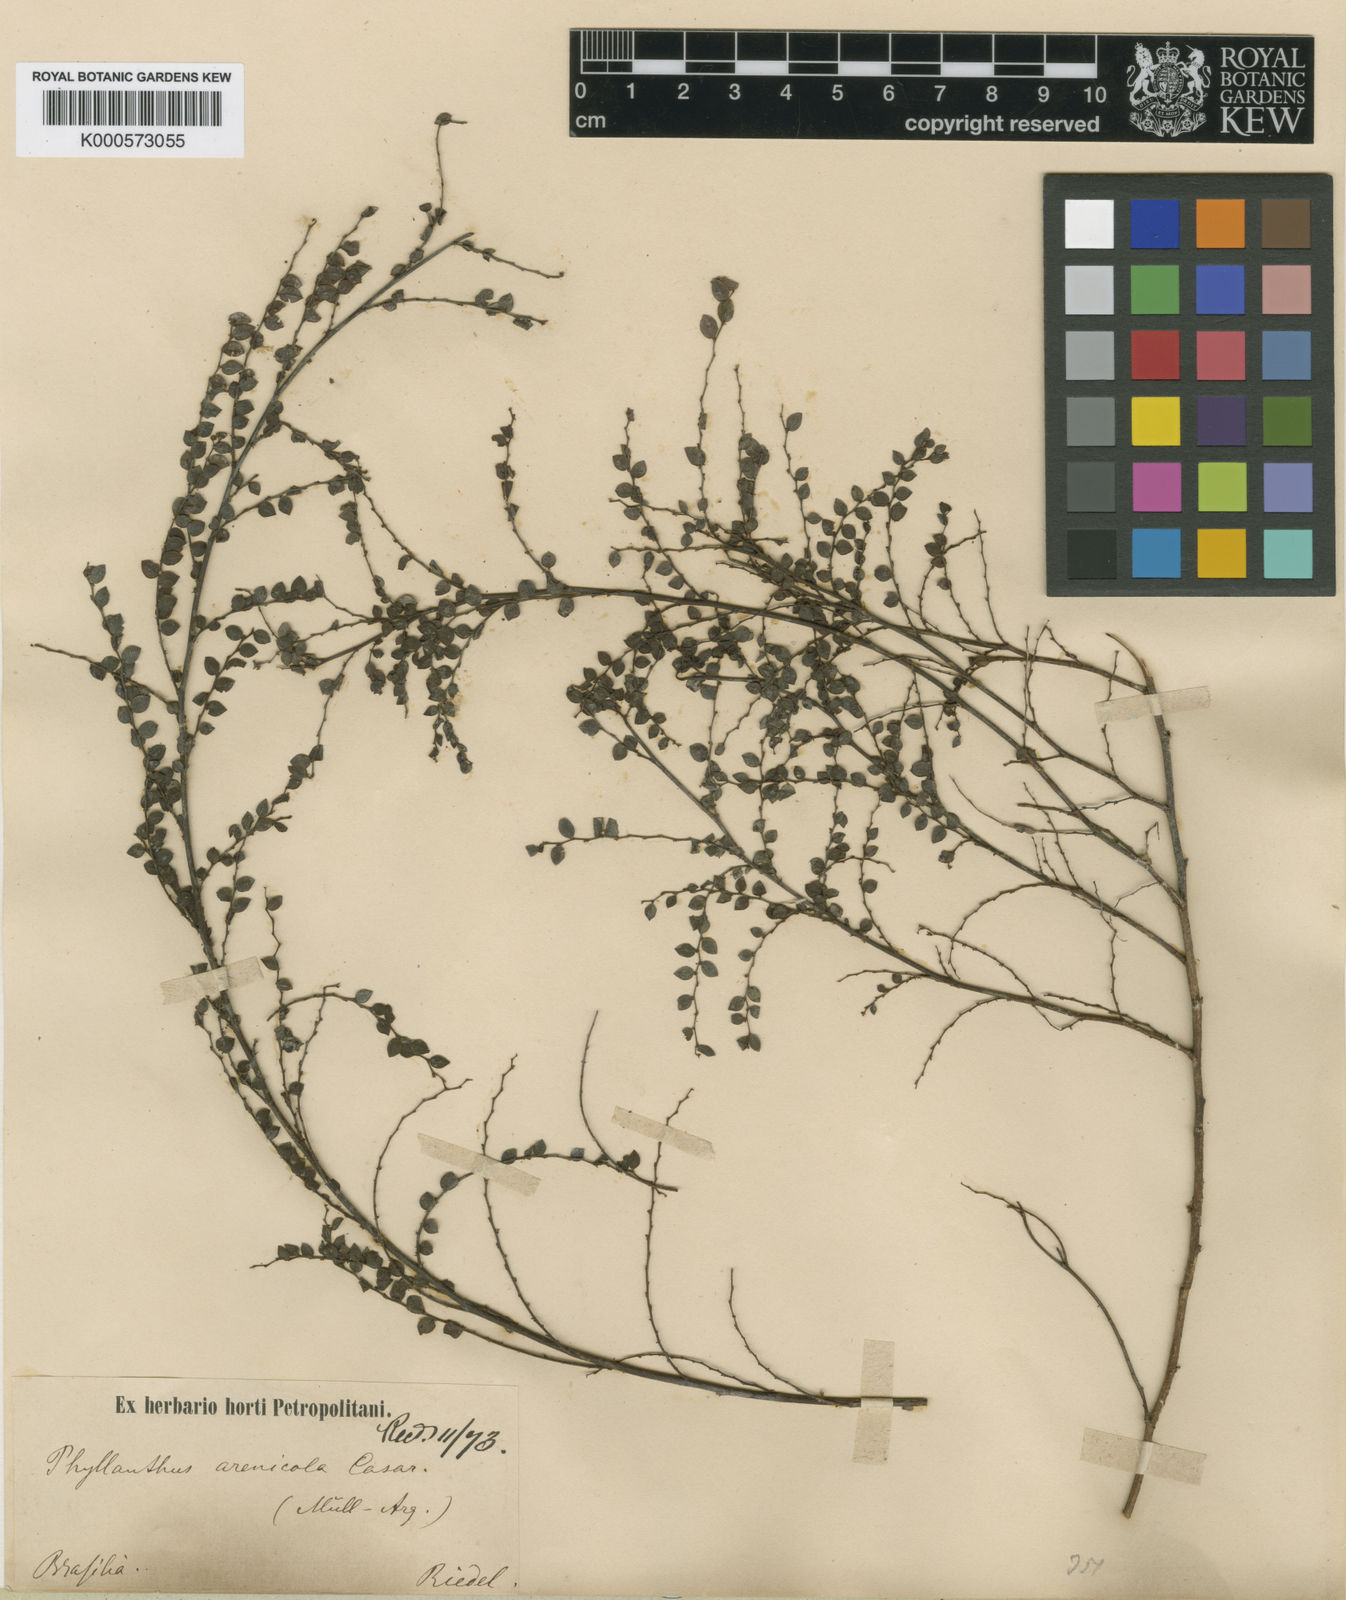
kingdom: Plantae
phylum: Tracheophyta
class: Magnoliopsida
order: Malpighiales
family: Phyllanthaceae
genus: Phyllanthus
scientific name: Phyllanthus arenicola
